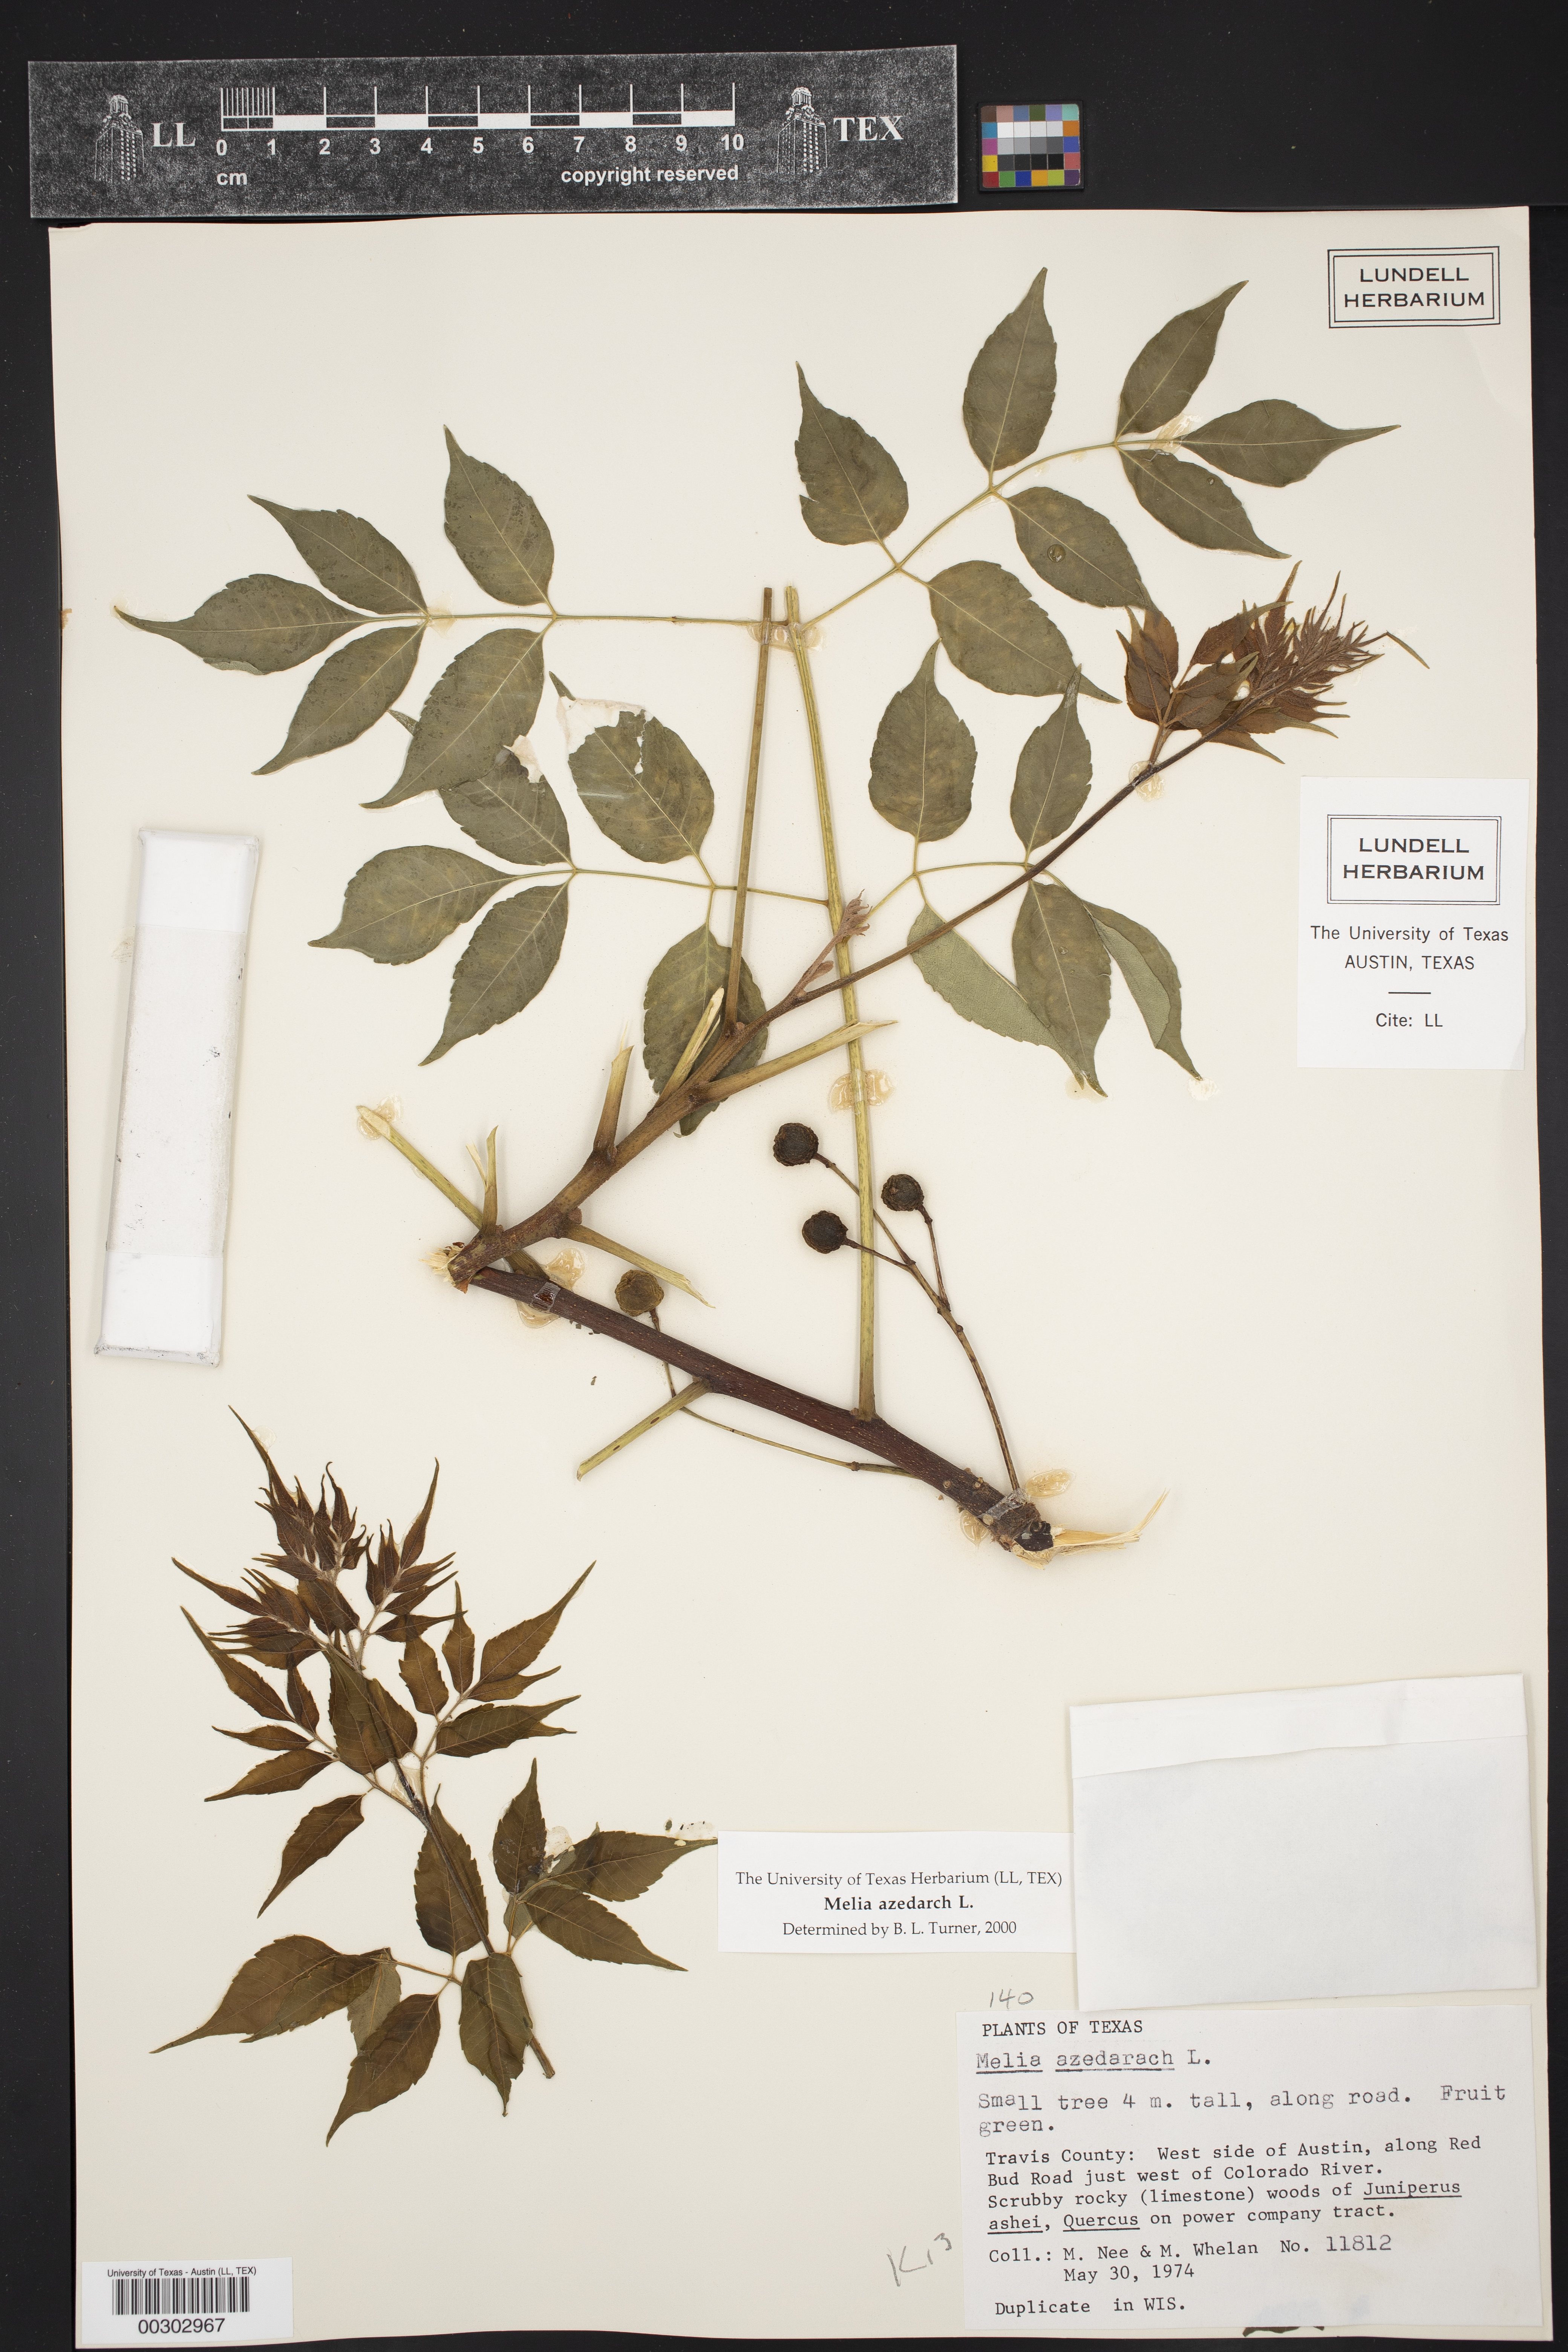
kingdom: Plantae
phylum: Tracheophyta
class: Magnoliopsida
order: Sapindales
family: Meliaceae
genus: Melia
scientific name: Melia azedarach
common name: Chinaberrytree
